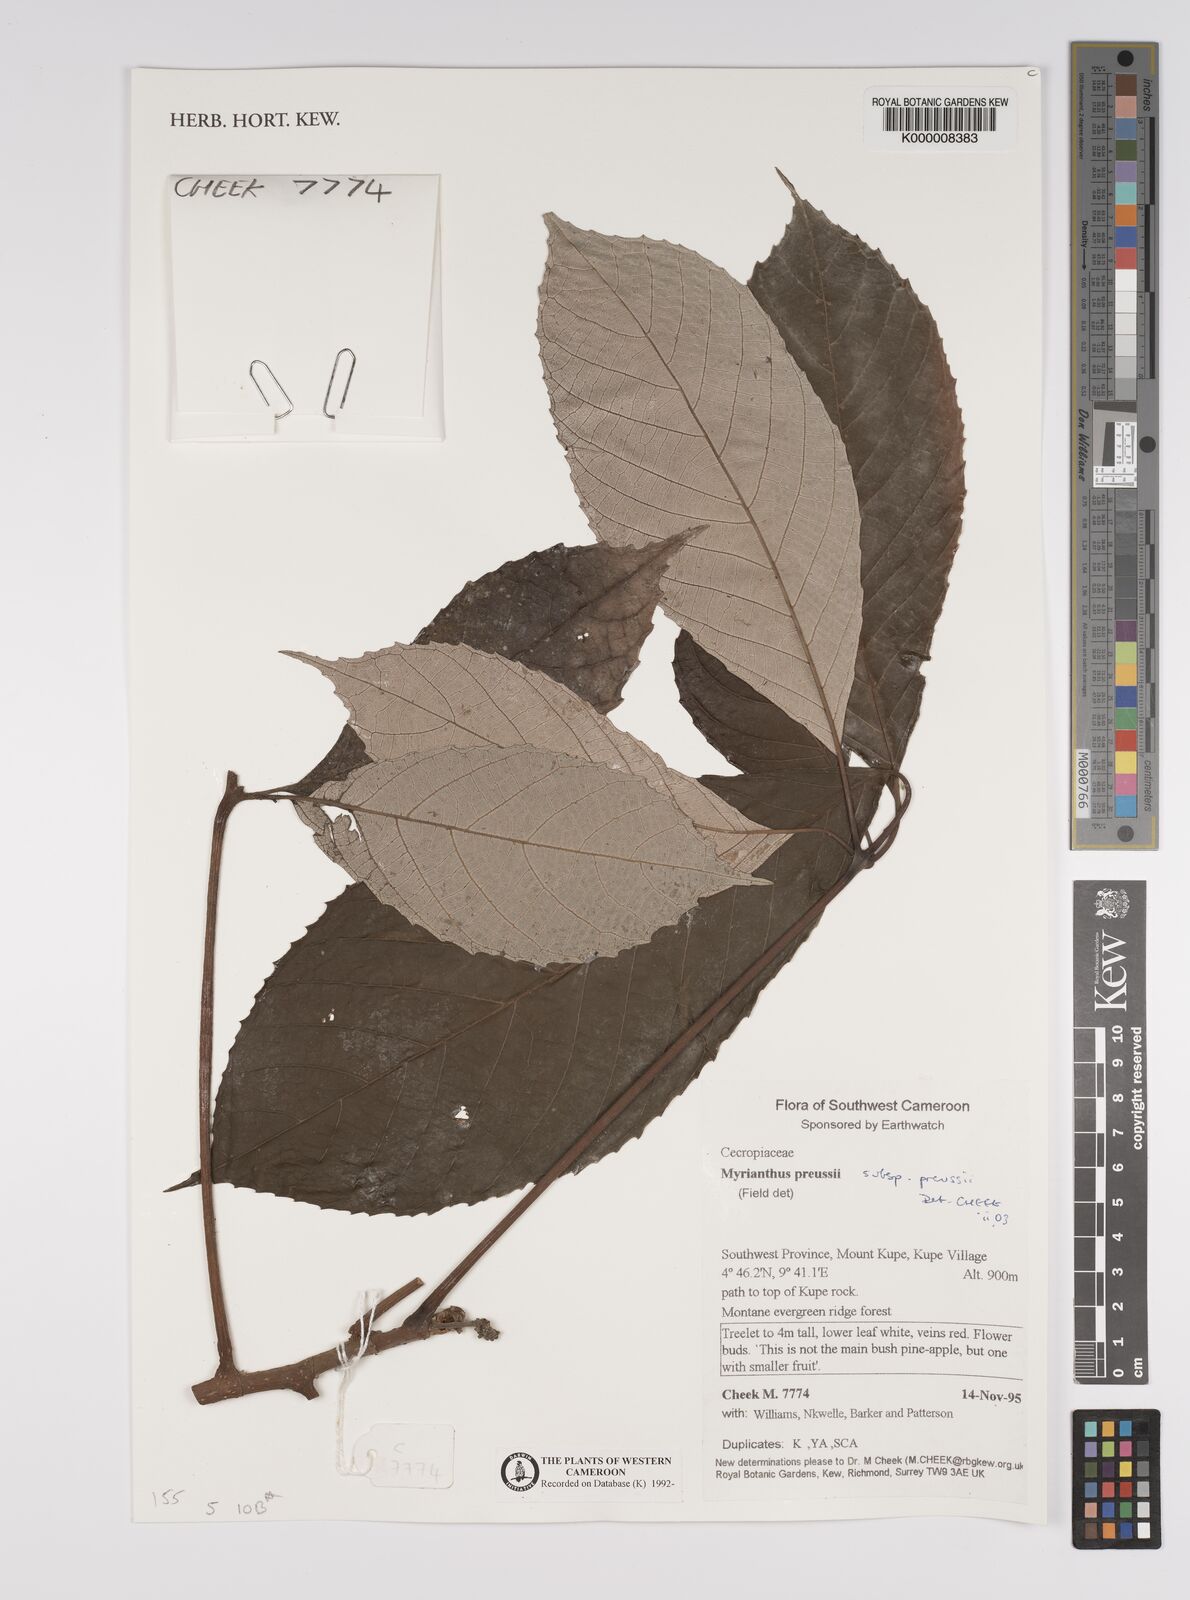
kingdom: Plantae
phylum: Tracheophyta
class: Magnoliopsida
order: Rosales
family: Urticaceae
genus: Myrianthus
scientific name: Myrianthus preussii
